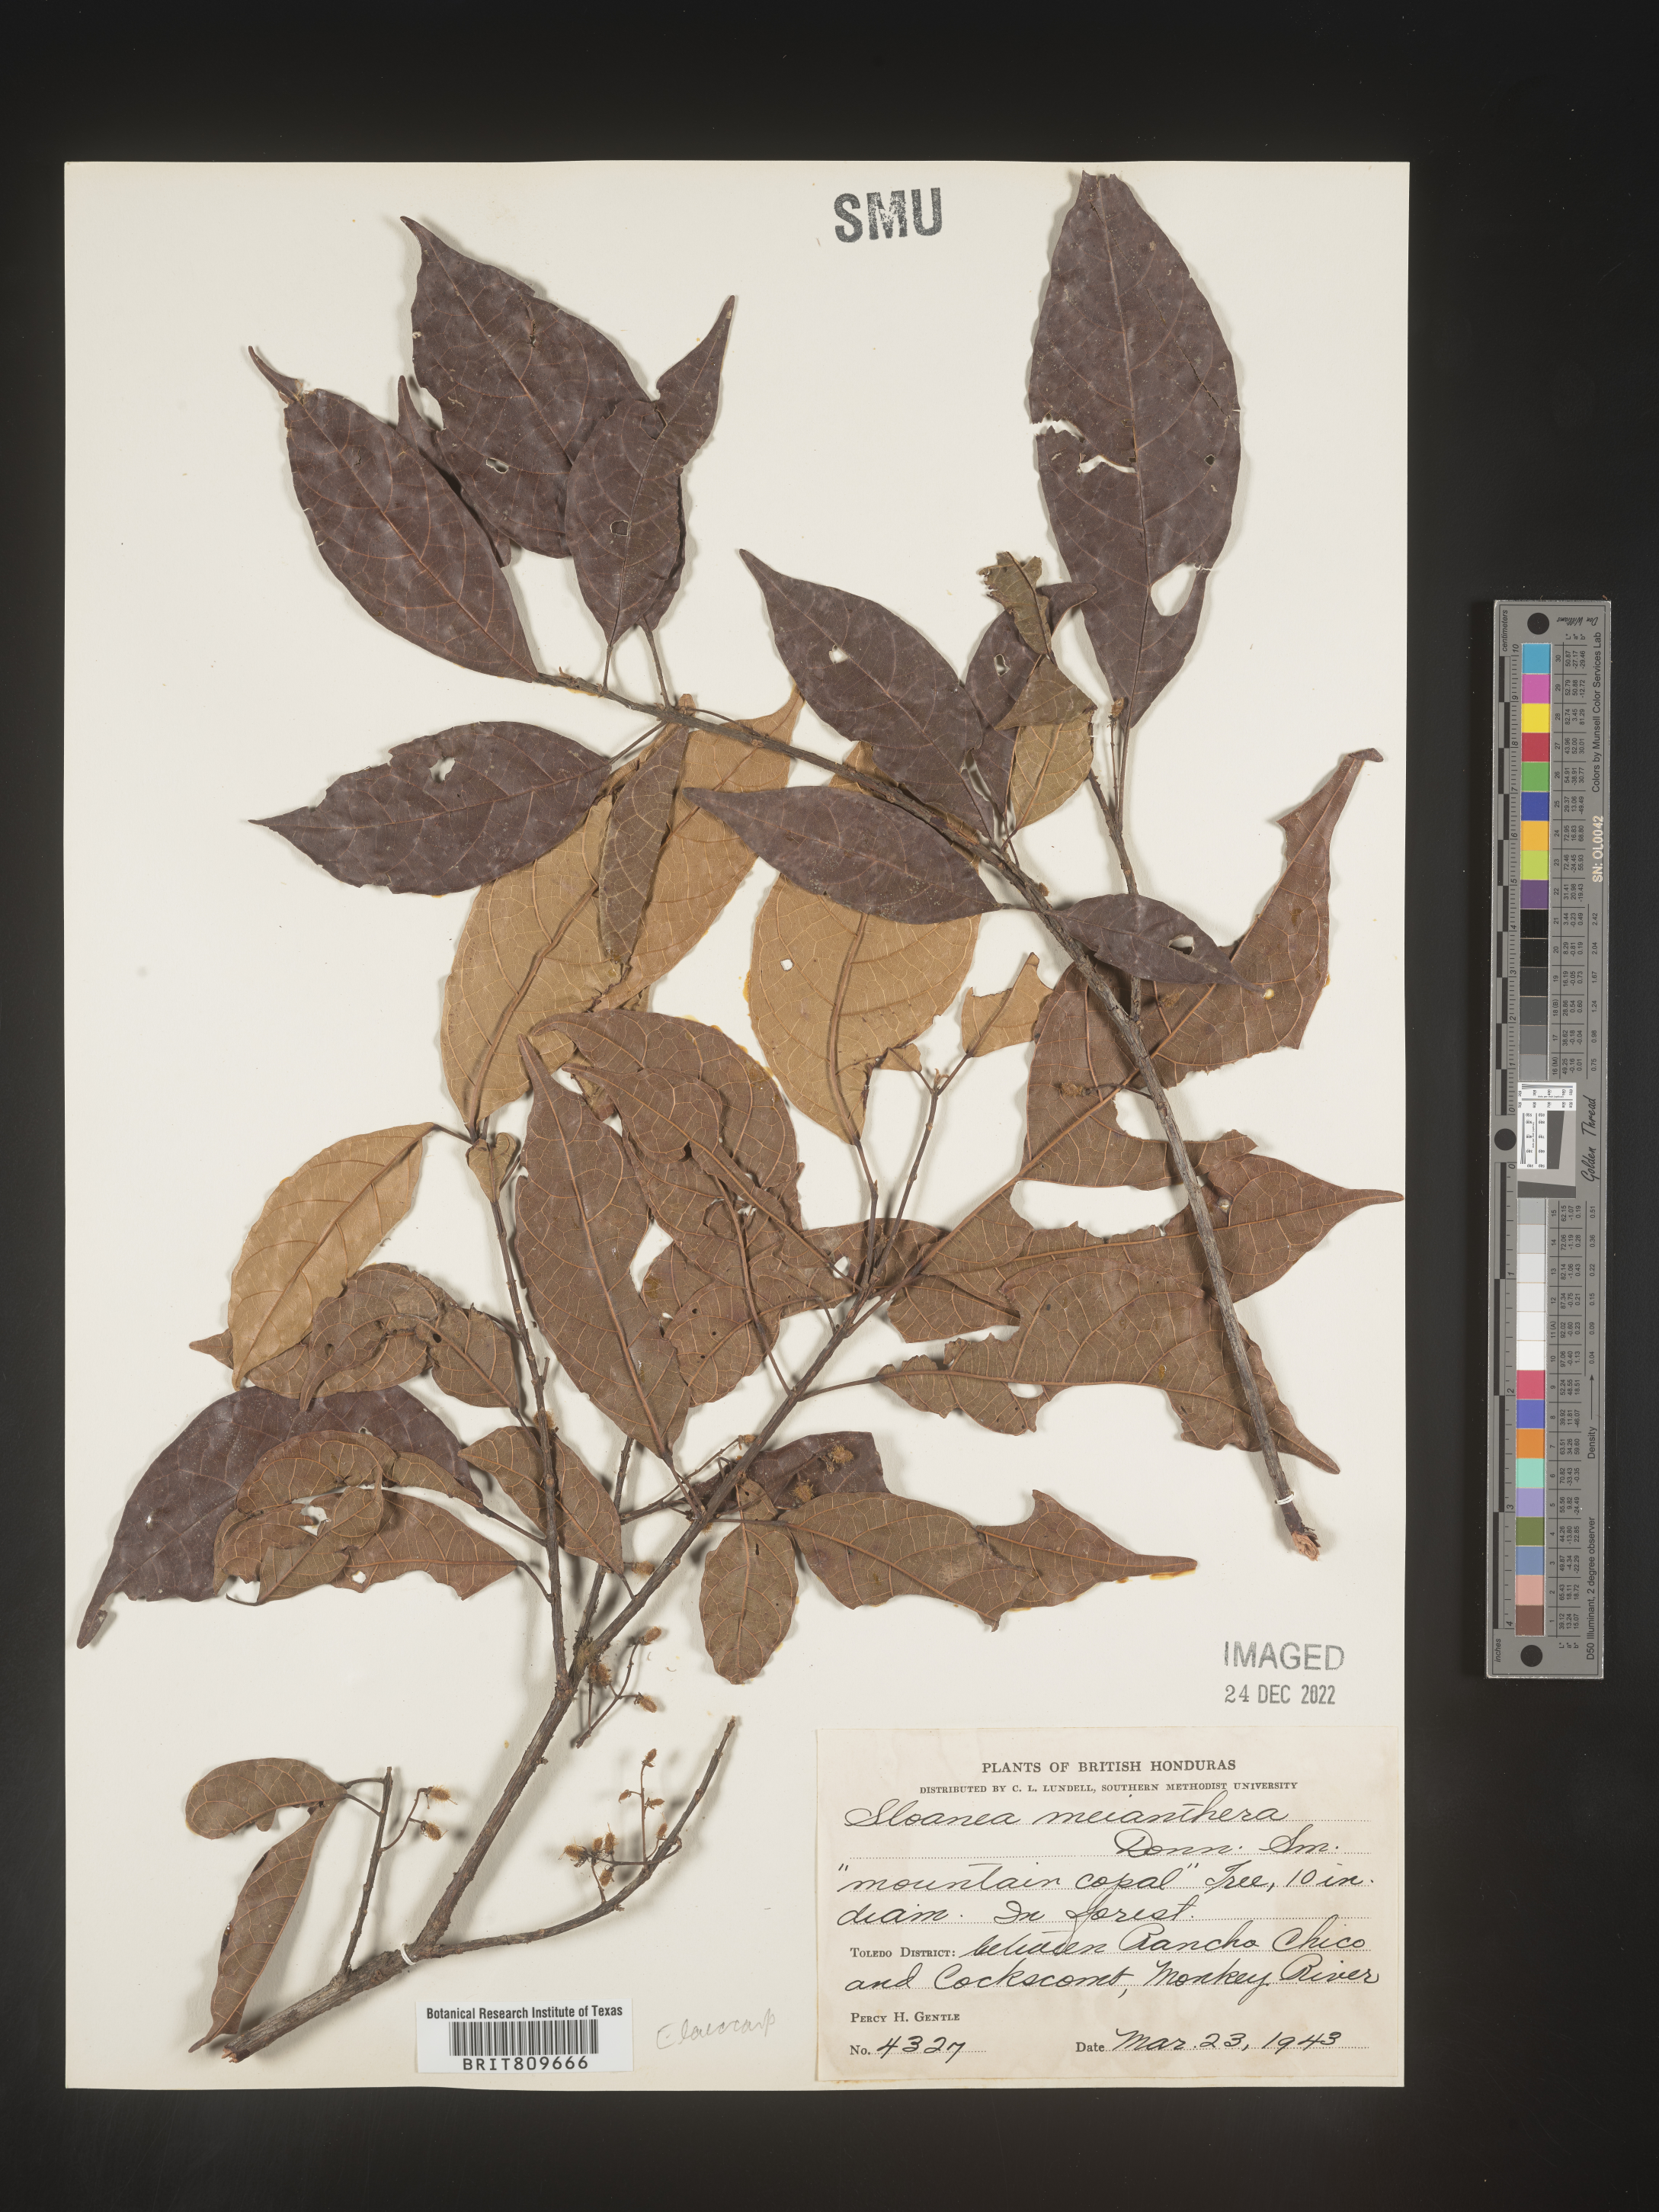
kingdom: Plantae
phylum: Tracheophyta
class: Magnoliopsida
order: Oxalidales
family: Elaeocarpaceae
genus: Sloanea
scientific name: Sloanea
